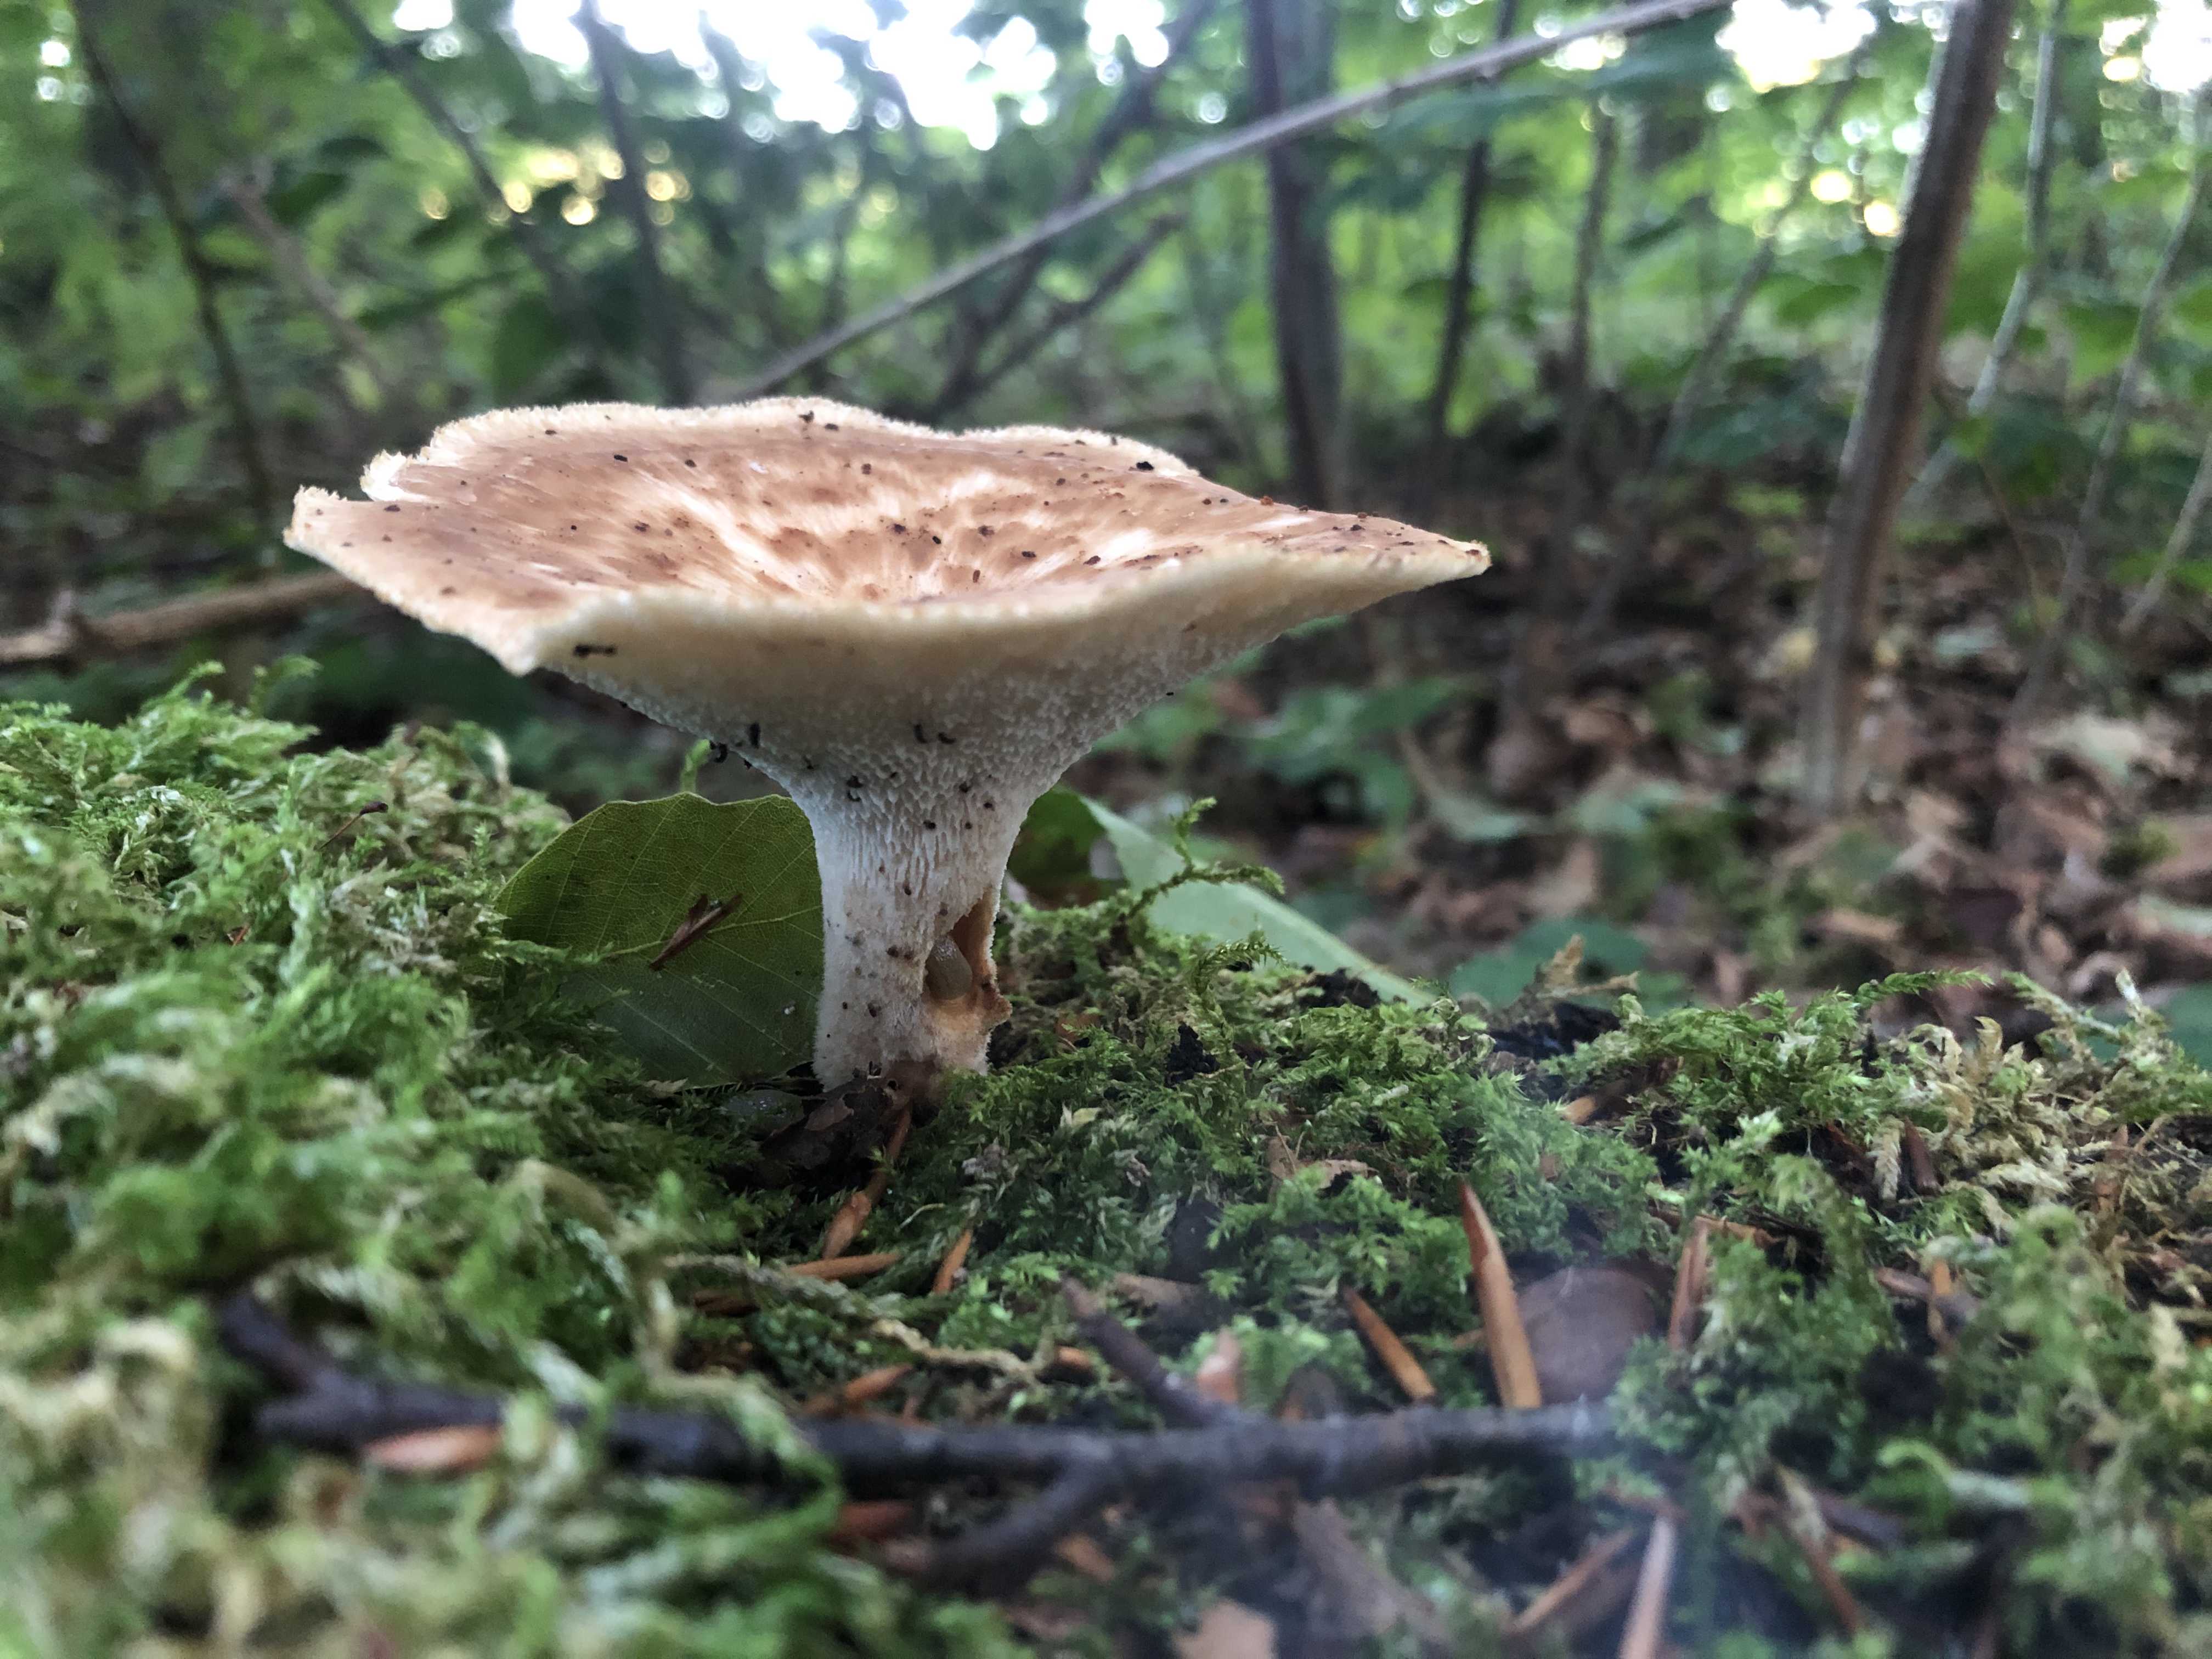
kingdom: Fungi
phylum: Basidiomycota
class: Agaricomycetes
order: Polyporales
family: Polyporaceae
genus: Polyporus
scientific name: Polyporus tuberaster
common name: knoldet stilkporesvamp
